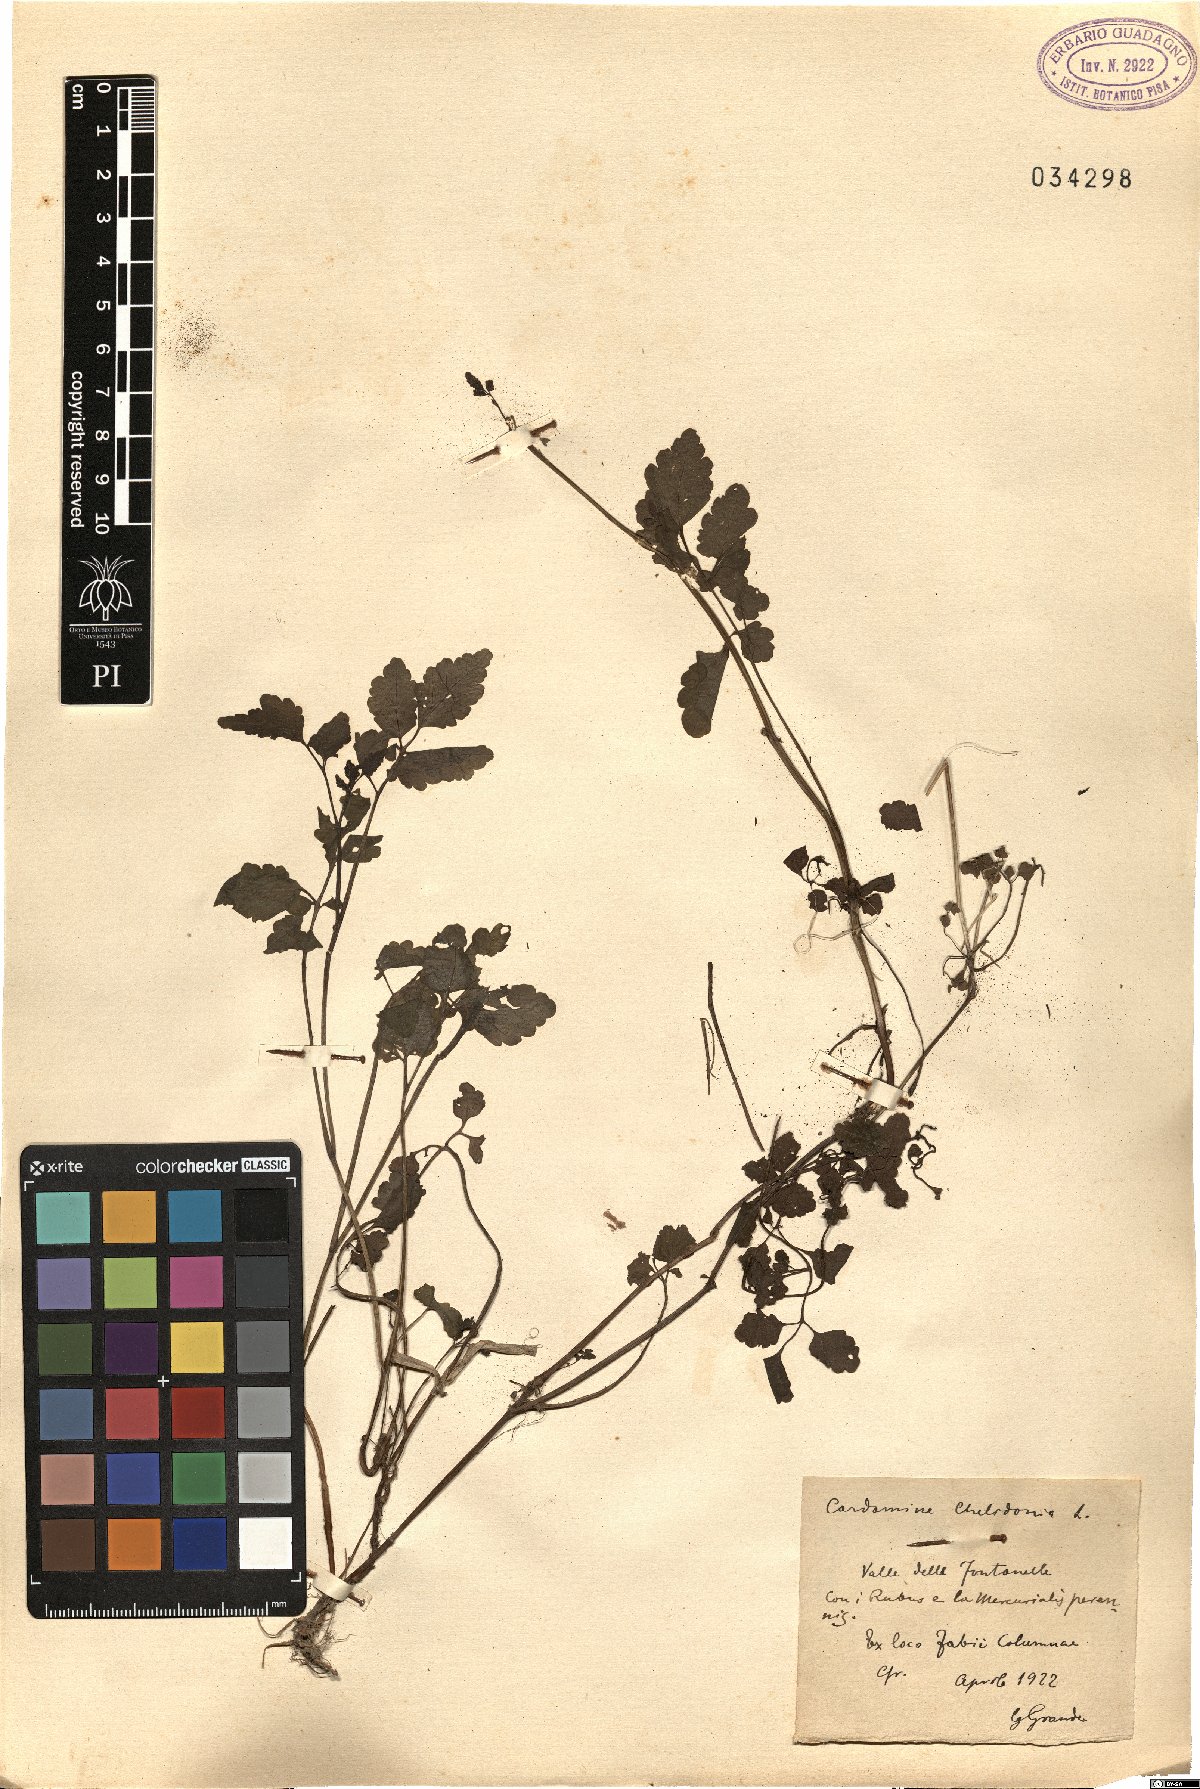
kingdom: Plantae
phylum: Tracheophyta
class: Magnoliopsida
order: Brassicales
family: Brassicaceae
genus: Cardamine
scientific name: Cardamine chelidonia
